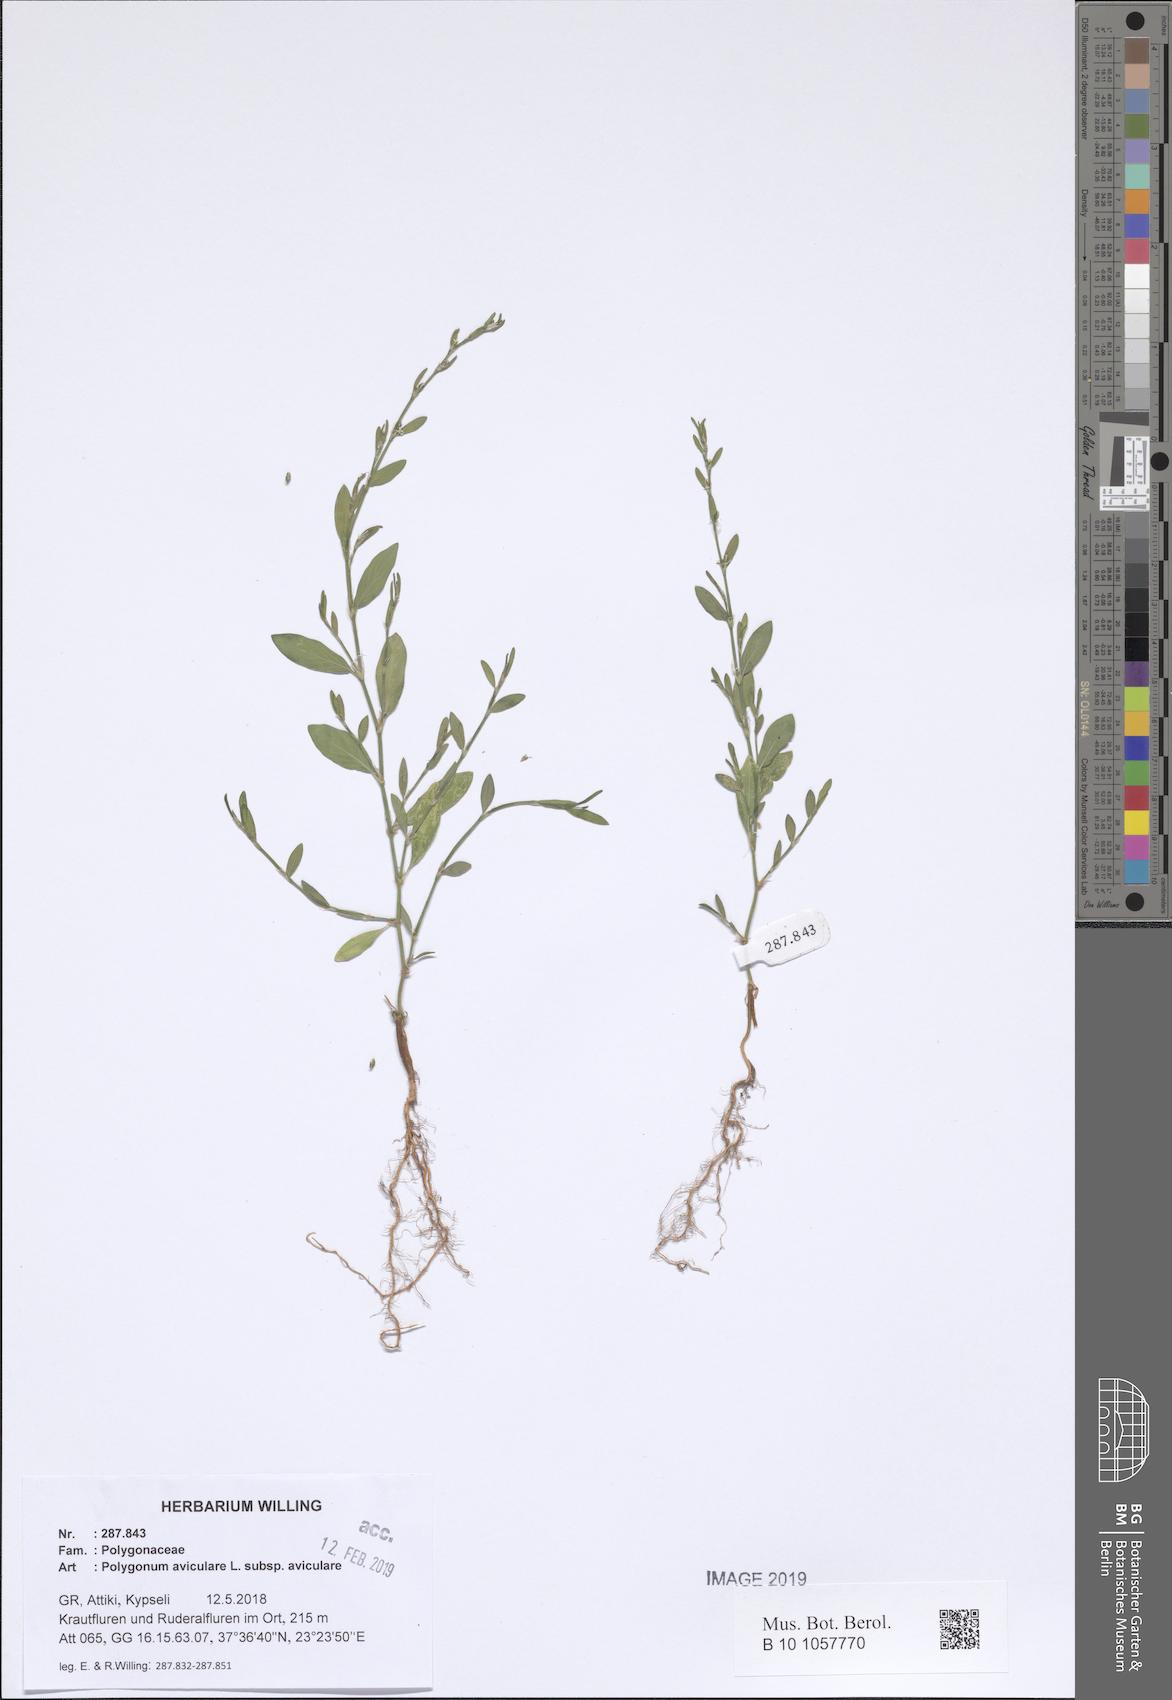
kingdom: Plantae
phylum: Tracheophyta
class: Magnoliopsida
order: Caryophyllales
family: Polygonaceae
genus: Polygonum
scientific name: Polygonum aviculare
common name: Prostrate knotweed
